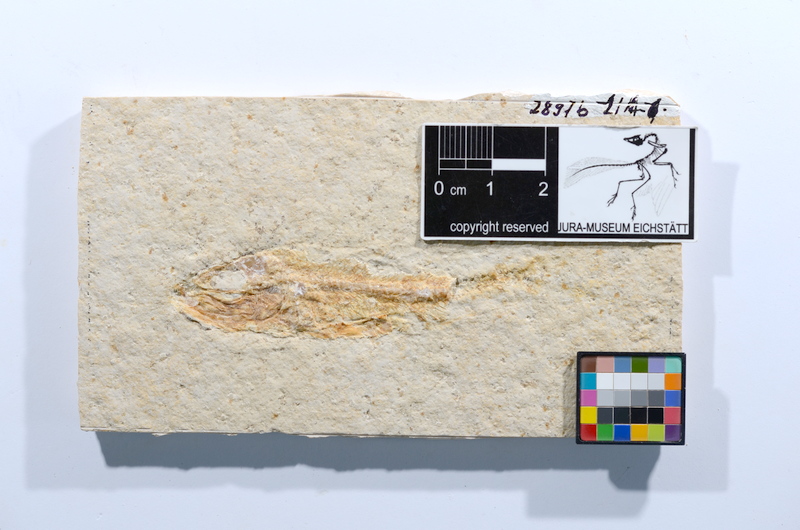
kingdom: Animalia
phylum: Chordata
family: Ascalaboidae
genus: Ascalabos
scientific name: Ascalabos voithii
